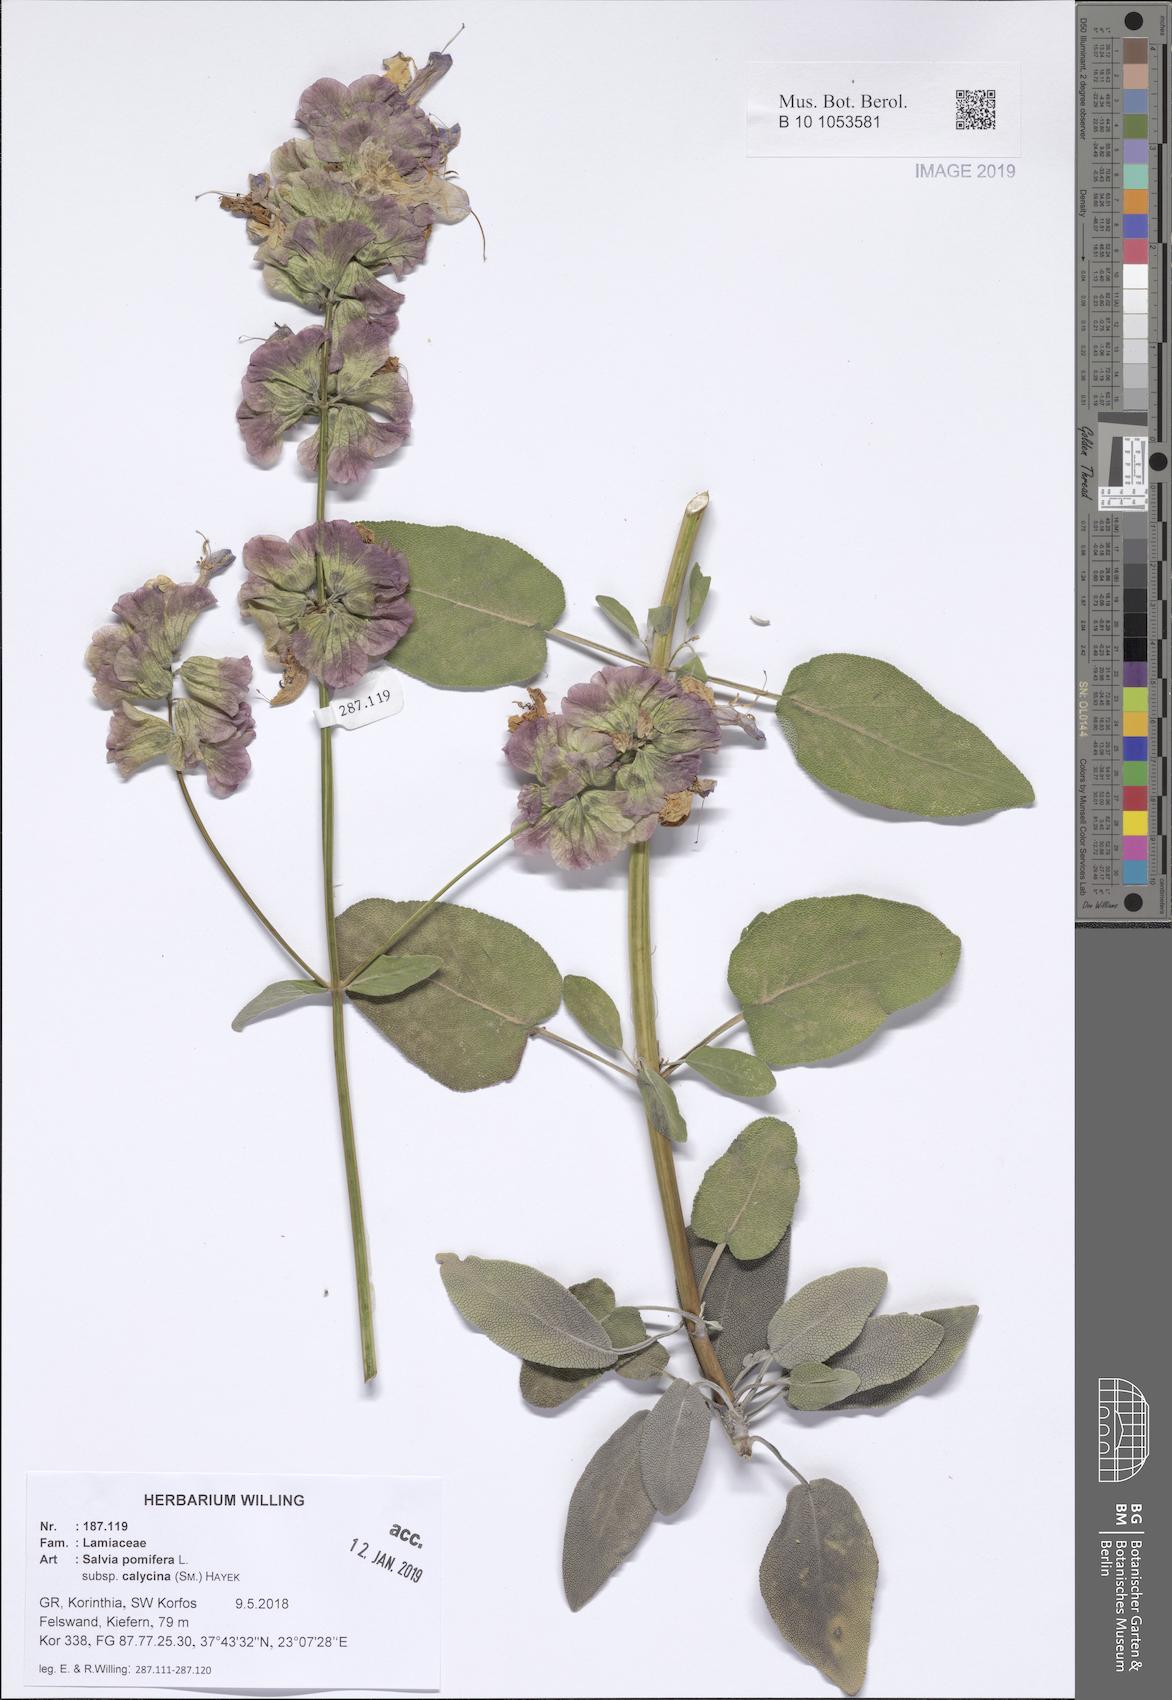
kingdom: Plantae
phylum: Tracheophyta
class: Magnoliopsida
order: Lamiales
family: Lamiaceae
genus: Salvia
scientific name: Salvia pomifera
